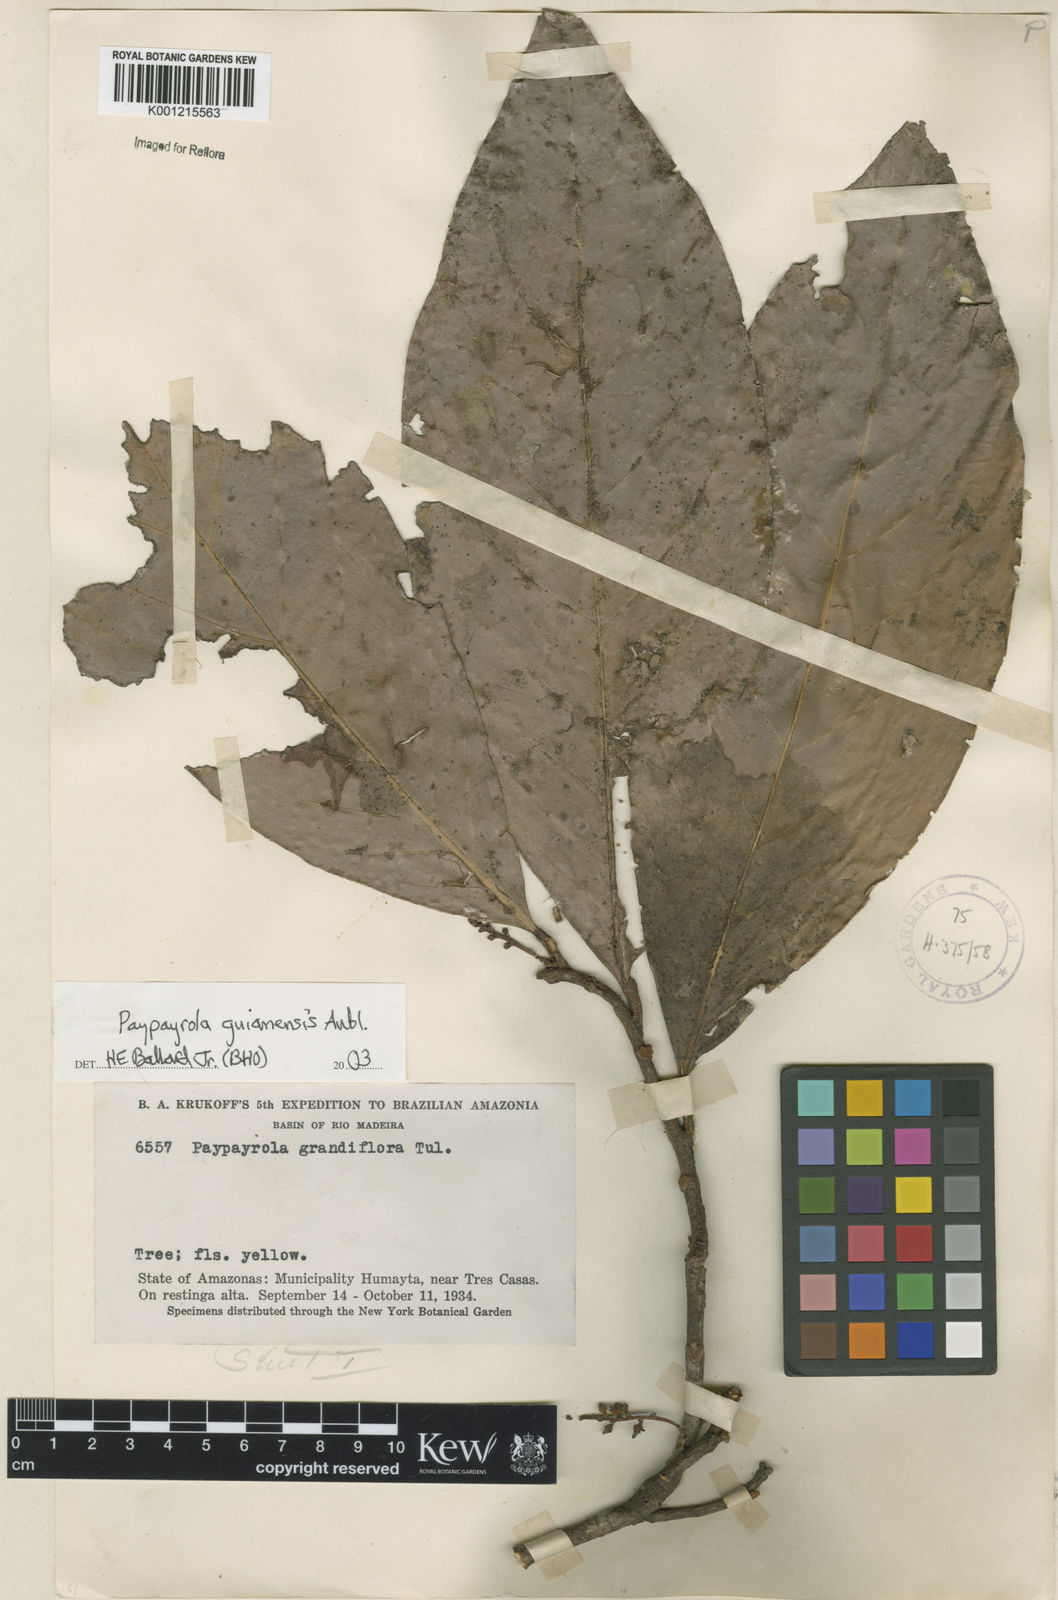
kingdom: Plantae
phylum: Tracheophyta
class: Magnoliopsida
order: Malpighiales
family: Violaceae
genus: Paypayrola
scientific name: Paypayrola guianensis
